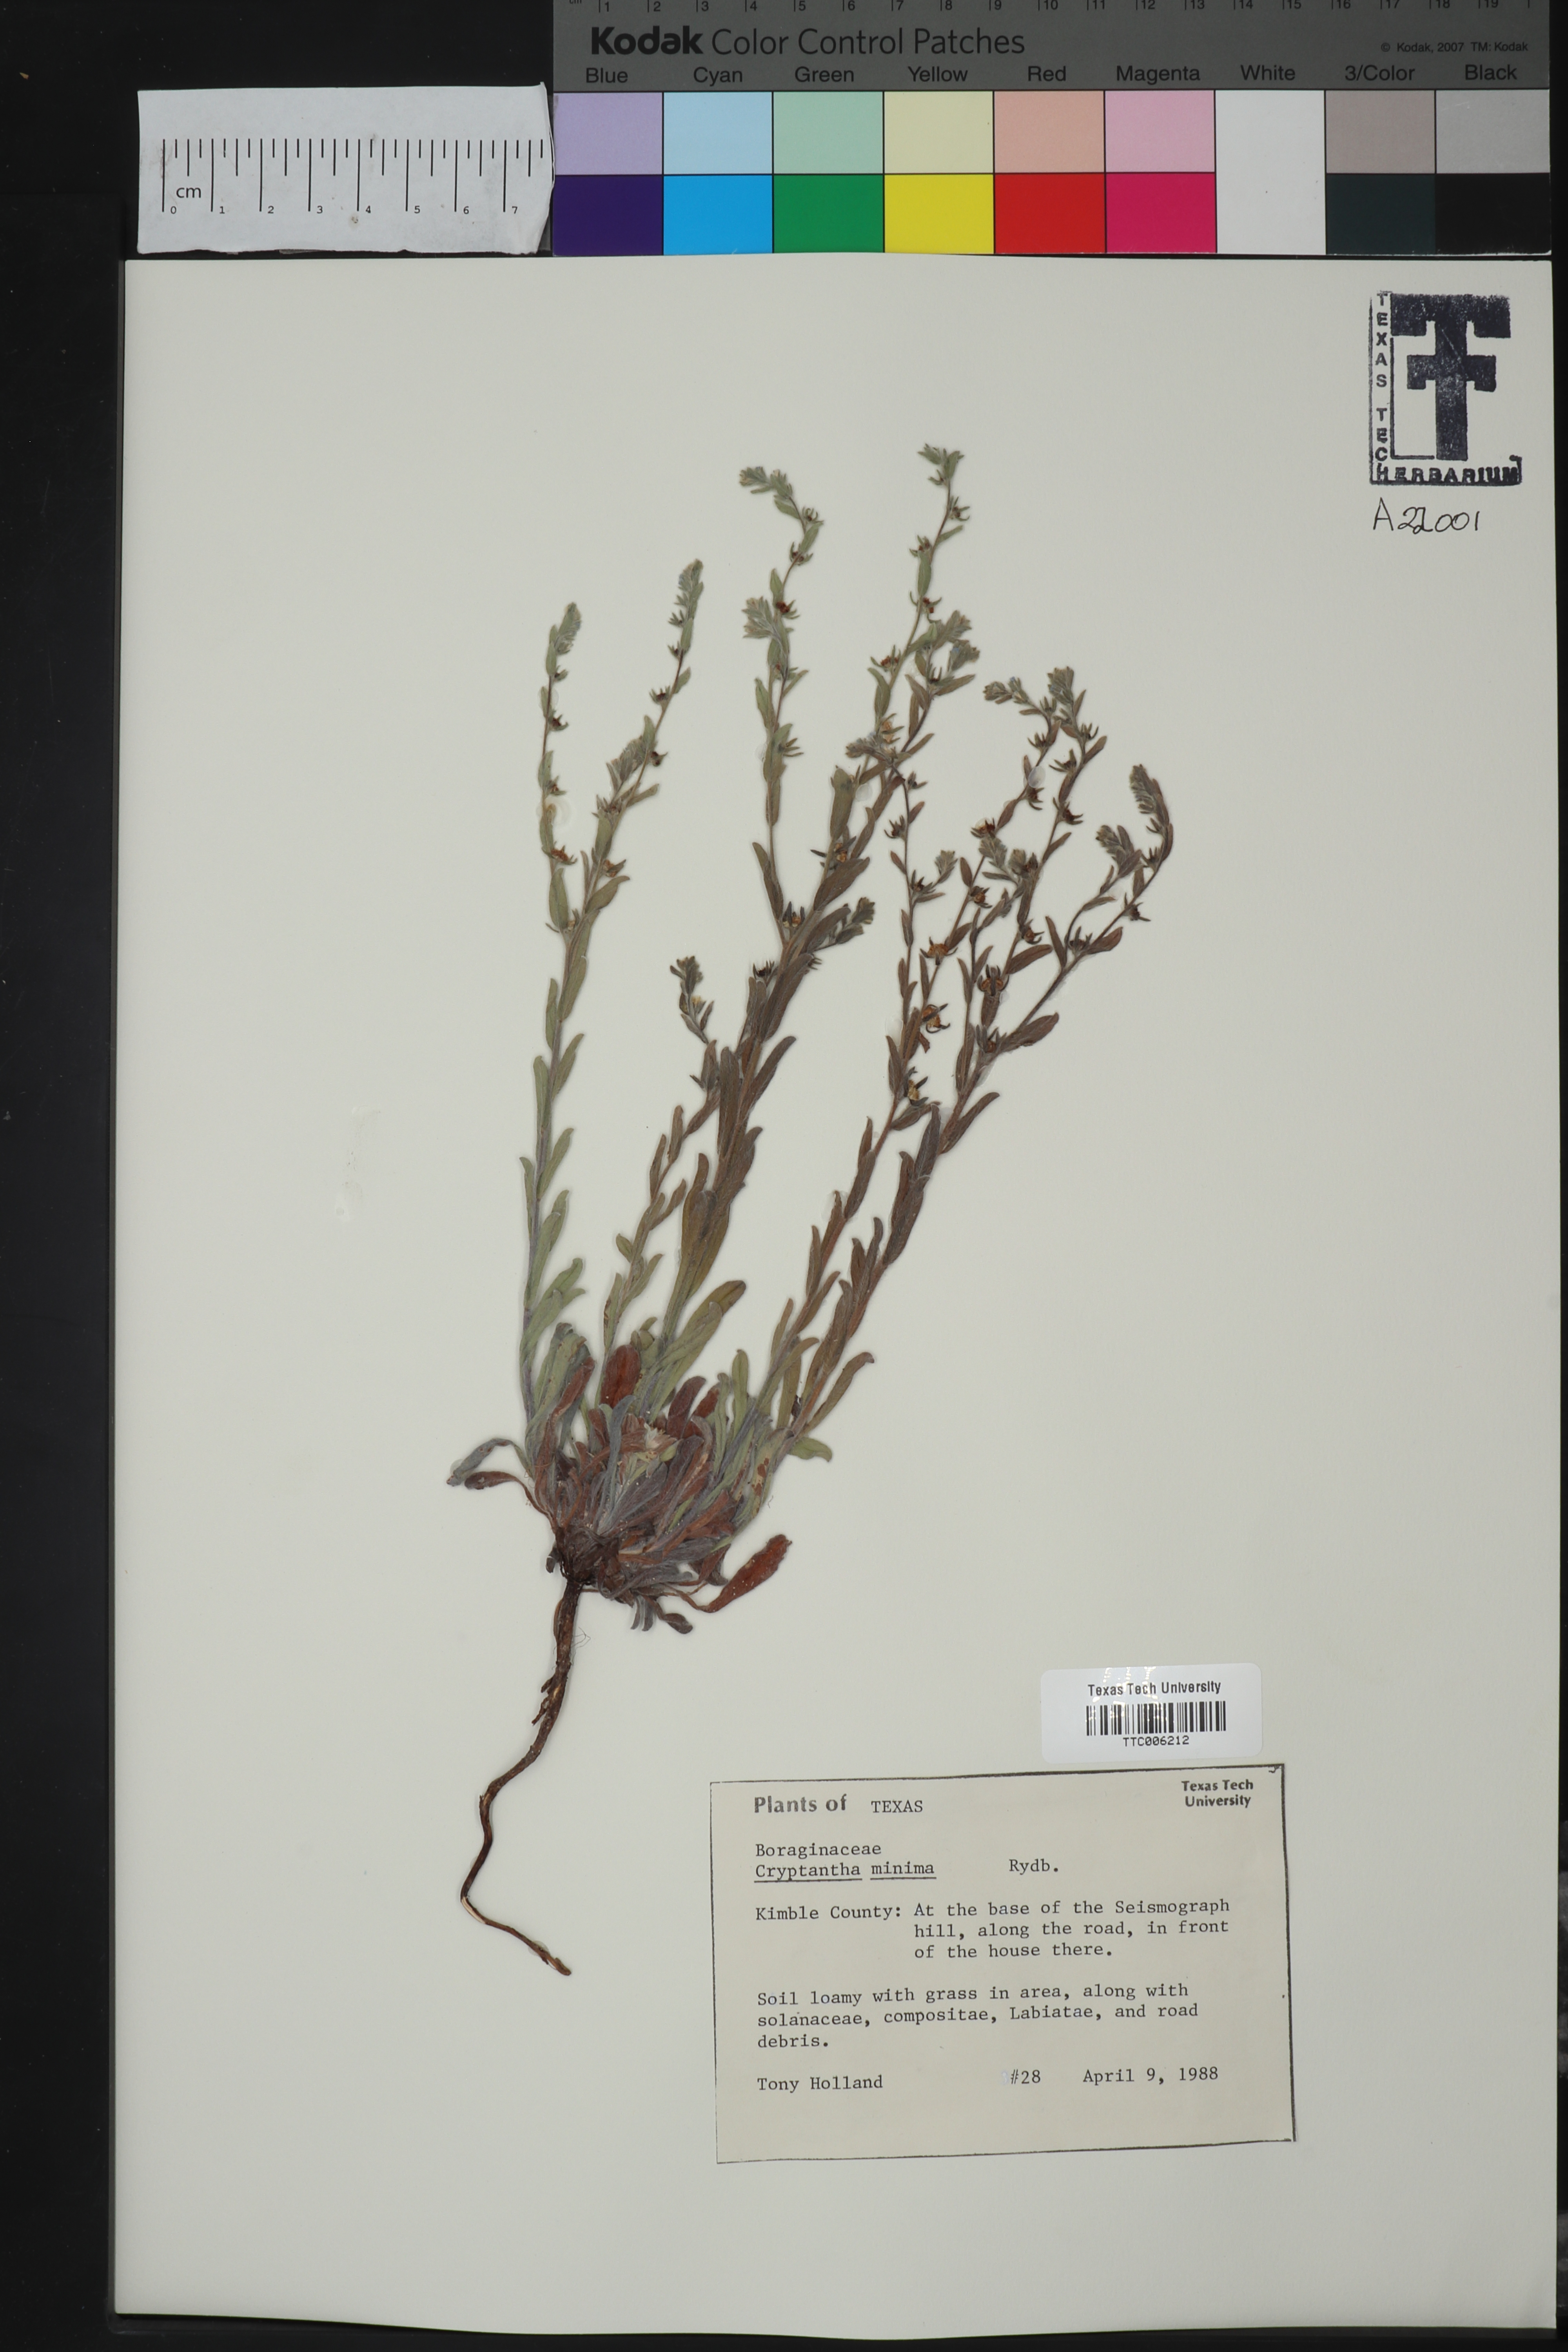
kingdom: Plantae
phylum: Tracheophyta
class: Magnoliopsida
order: Boraginales
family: Boraginaceae
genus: Cryptantha
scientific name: Cryptantha minima
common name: Little cat's-eye
